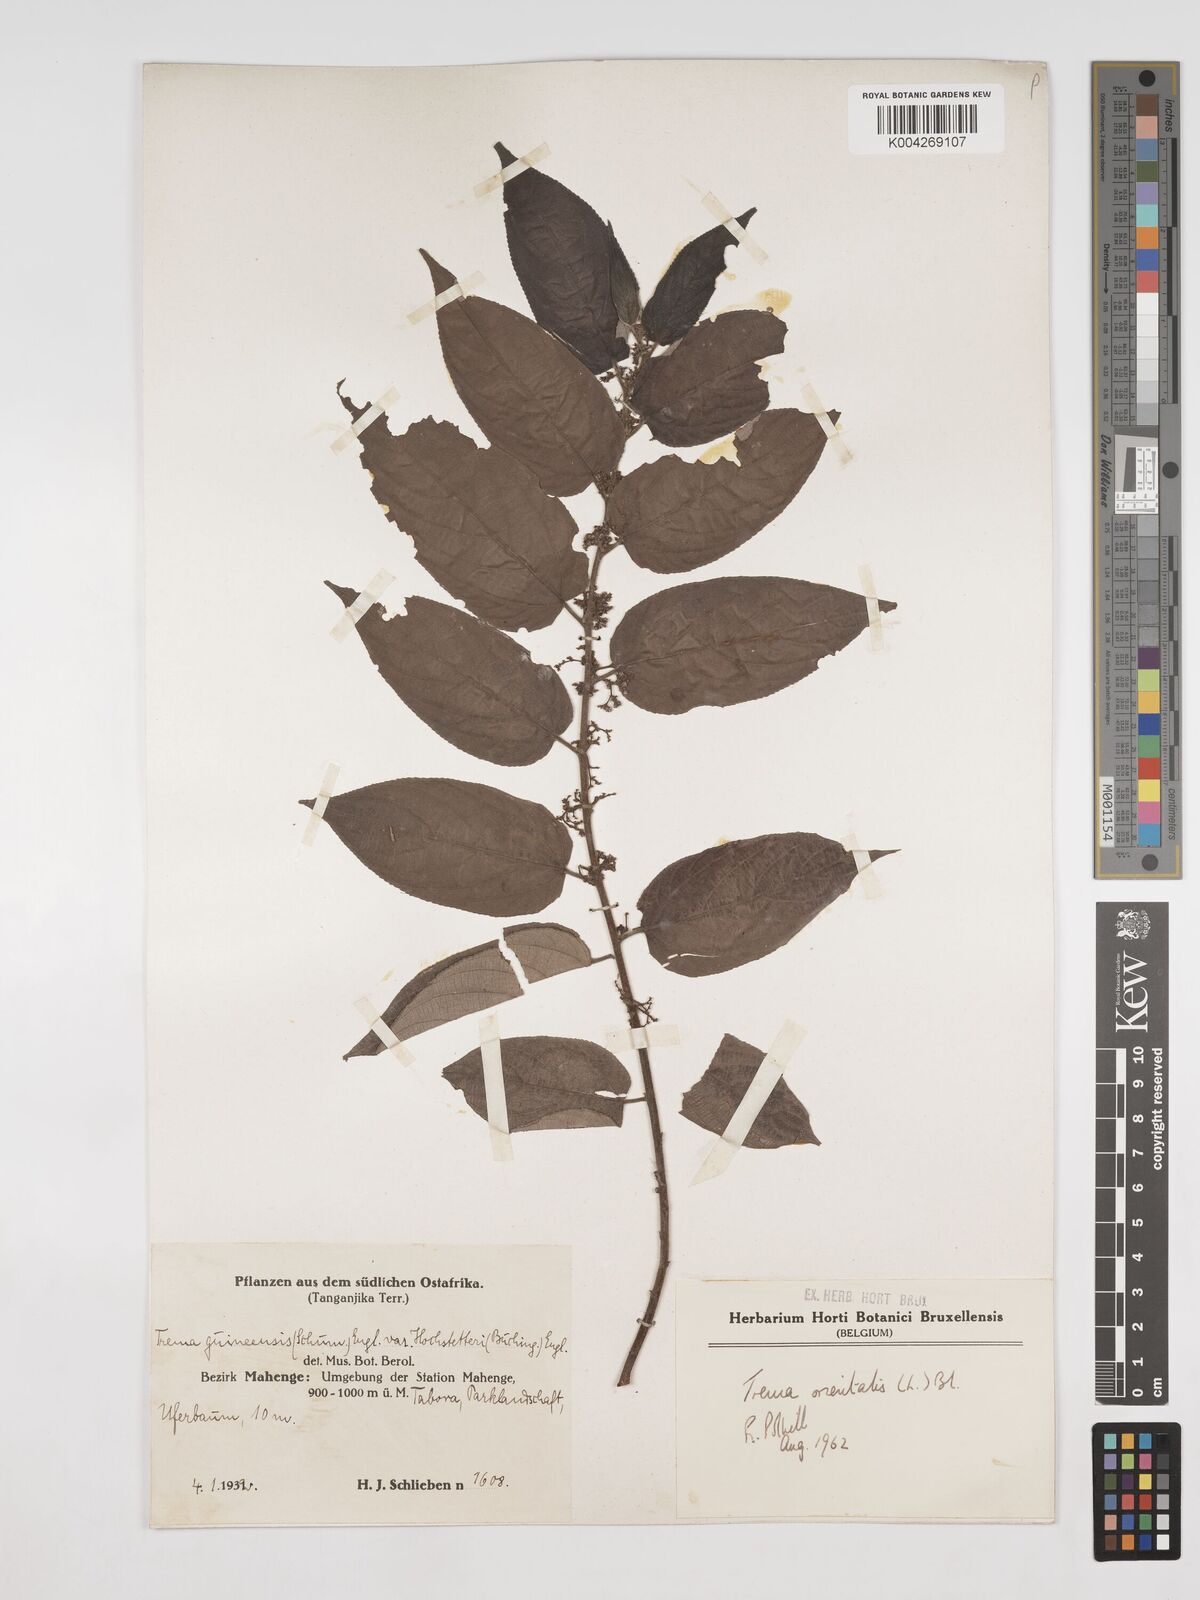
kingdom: Plantae
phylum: Tracheophyta
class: Magnoliopsida
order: Rosales
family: Cannabaceae
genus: Trema
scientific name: Trema orientale
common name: Indian charcoal tree
